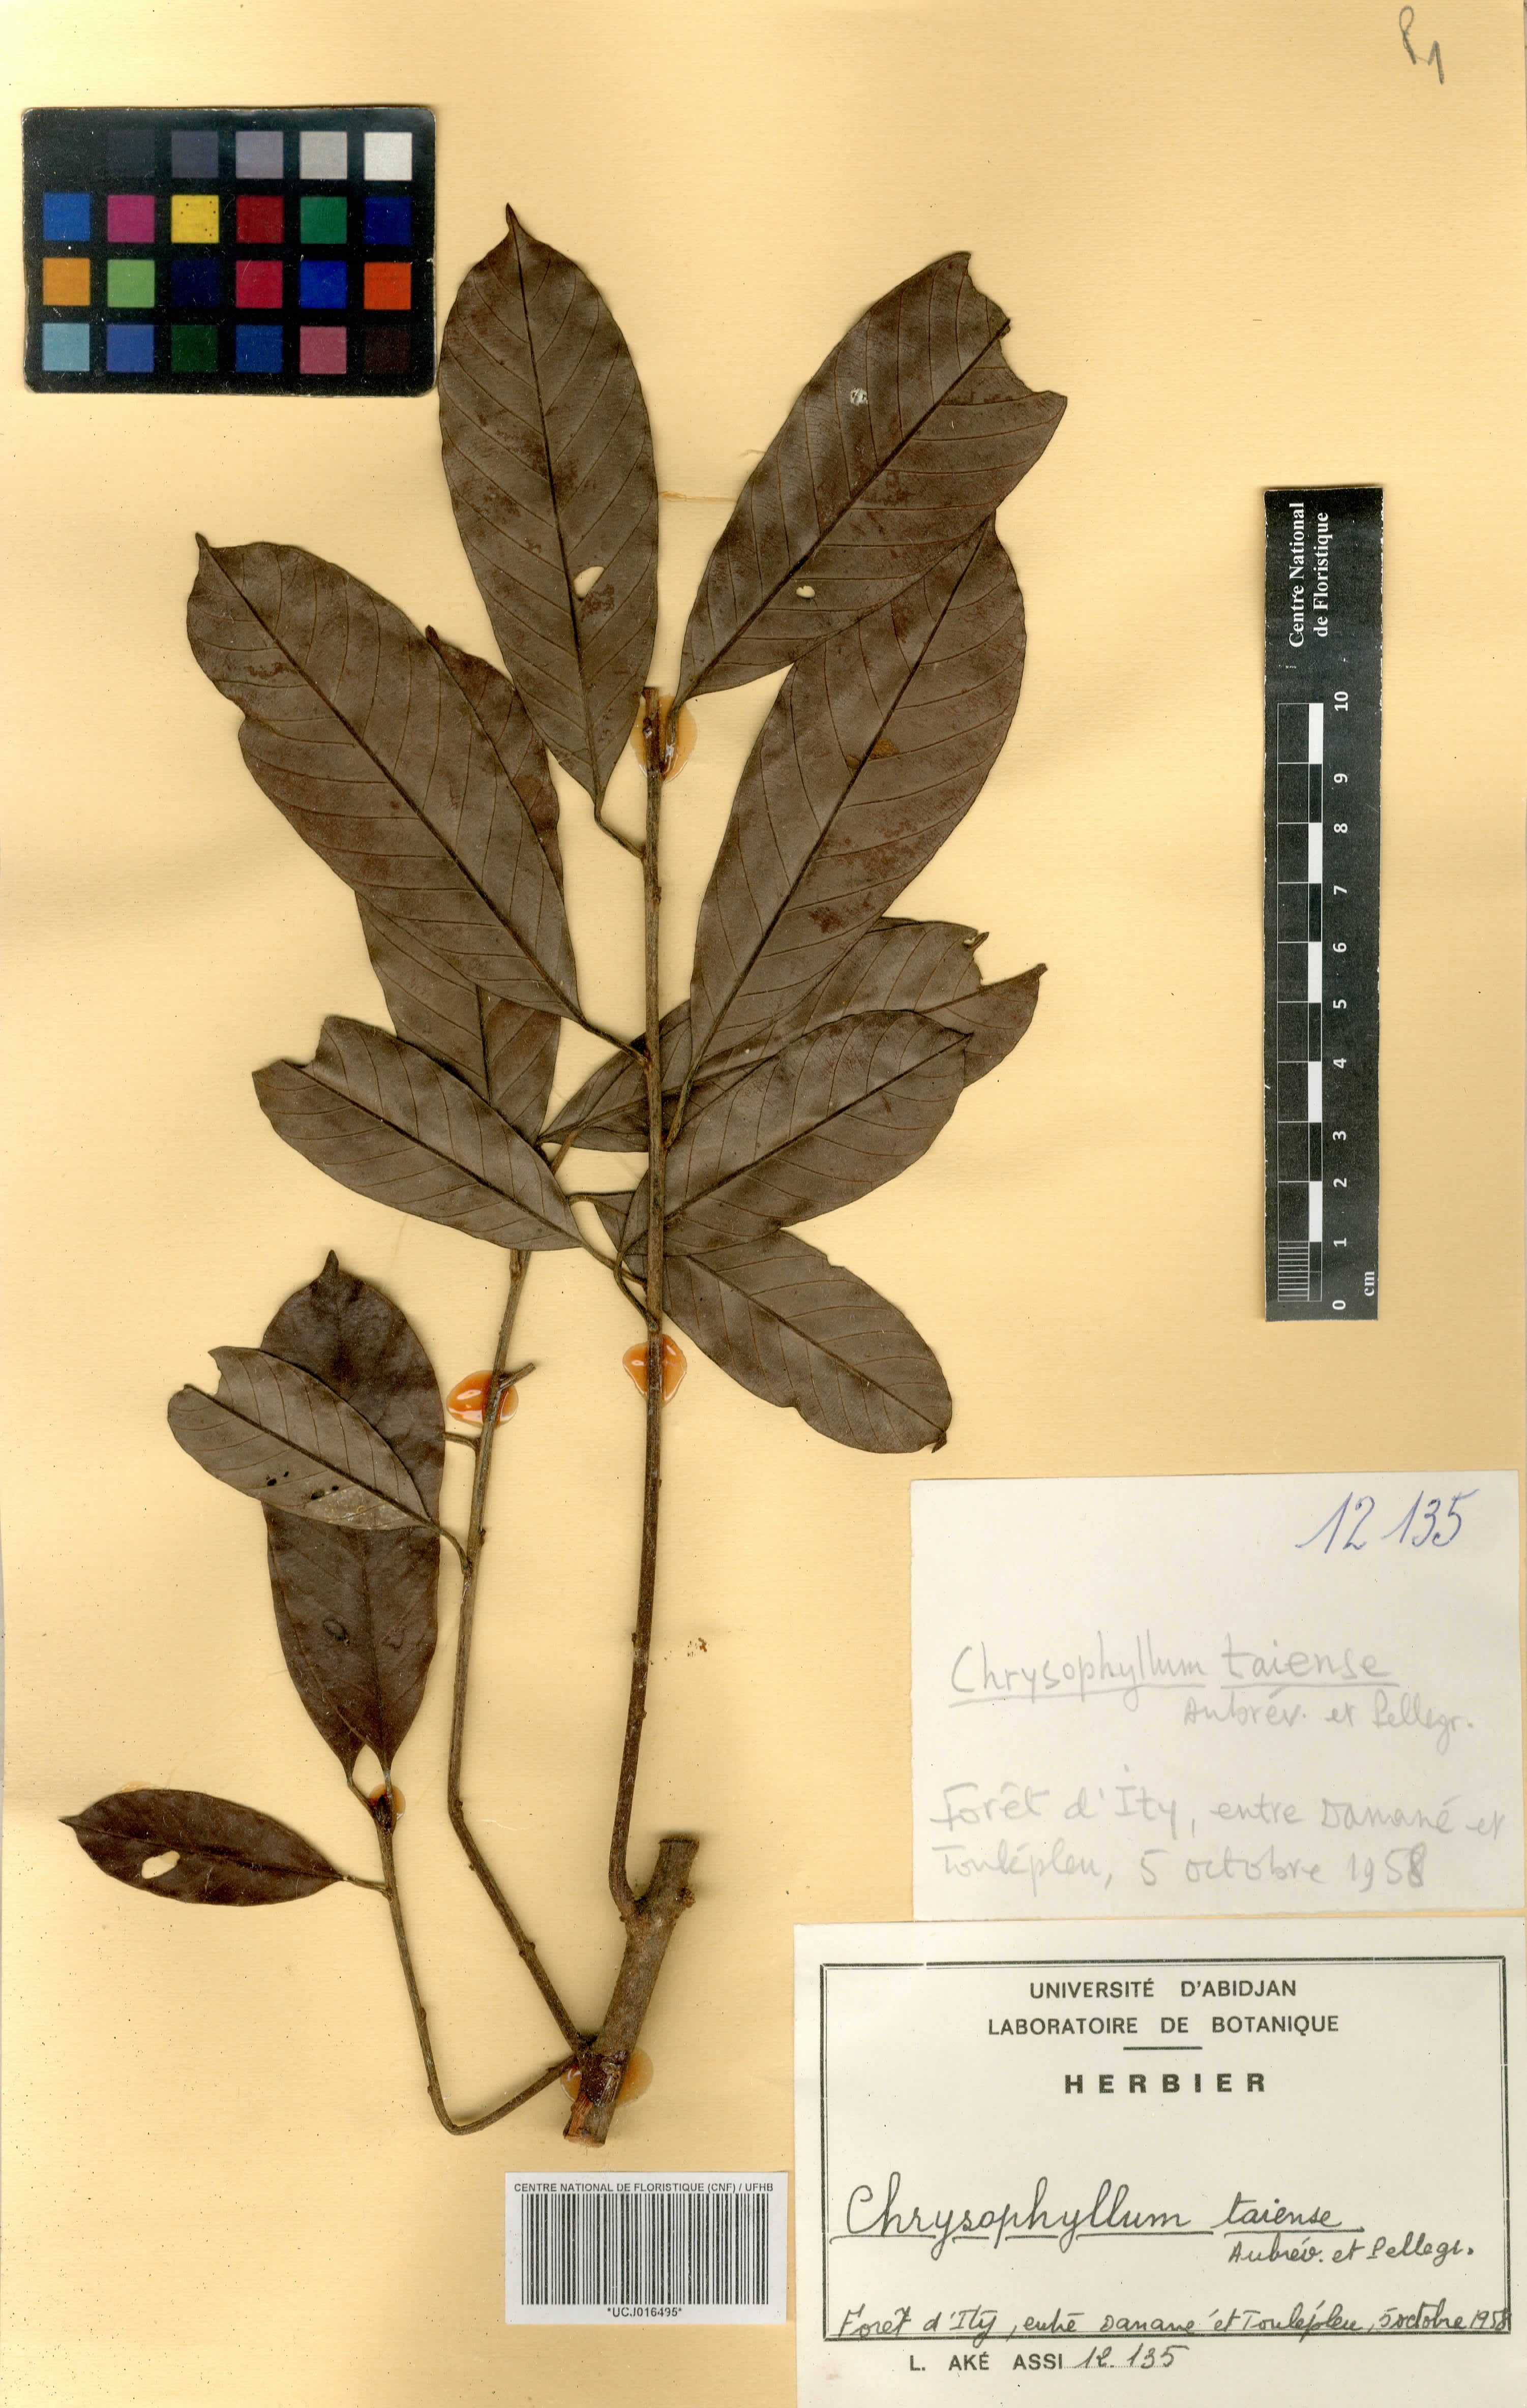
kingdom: Plantae
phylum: Tracheophyta
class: Magnoliopsida
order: Ericales
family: Sapotaceae
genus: Gambeya
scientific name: Gambeya taiensis
